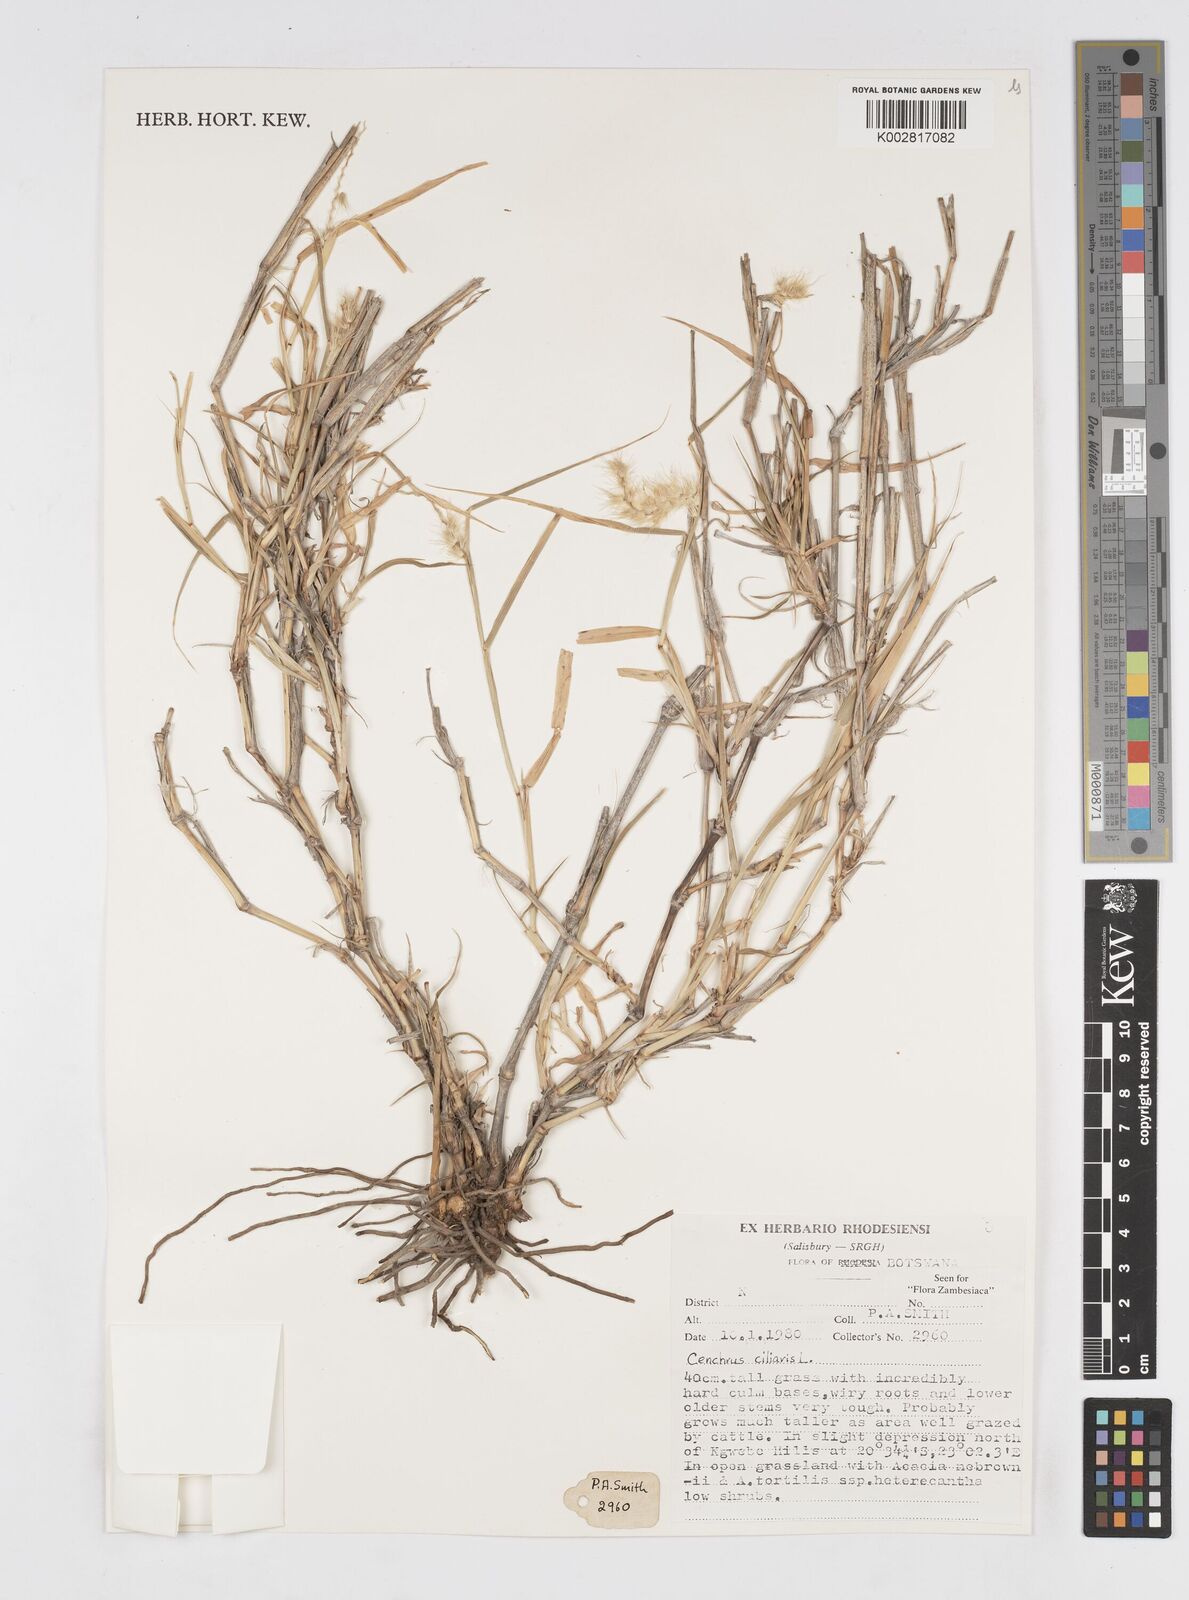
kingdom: Plantae
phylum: Tracheophyta
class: Liliopsida
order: Poales
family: Poaceae
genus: Cenchrus
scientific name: Cenchrus ciliaris
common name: Buffelgrass
